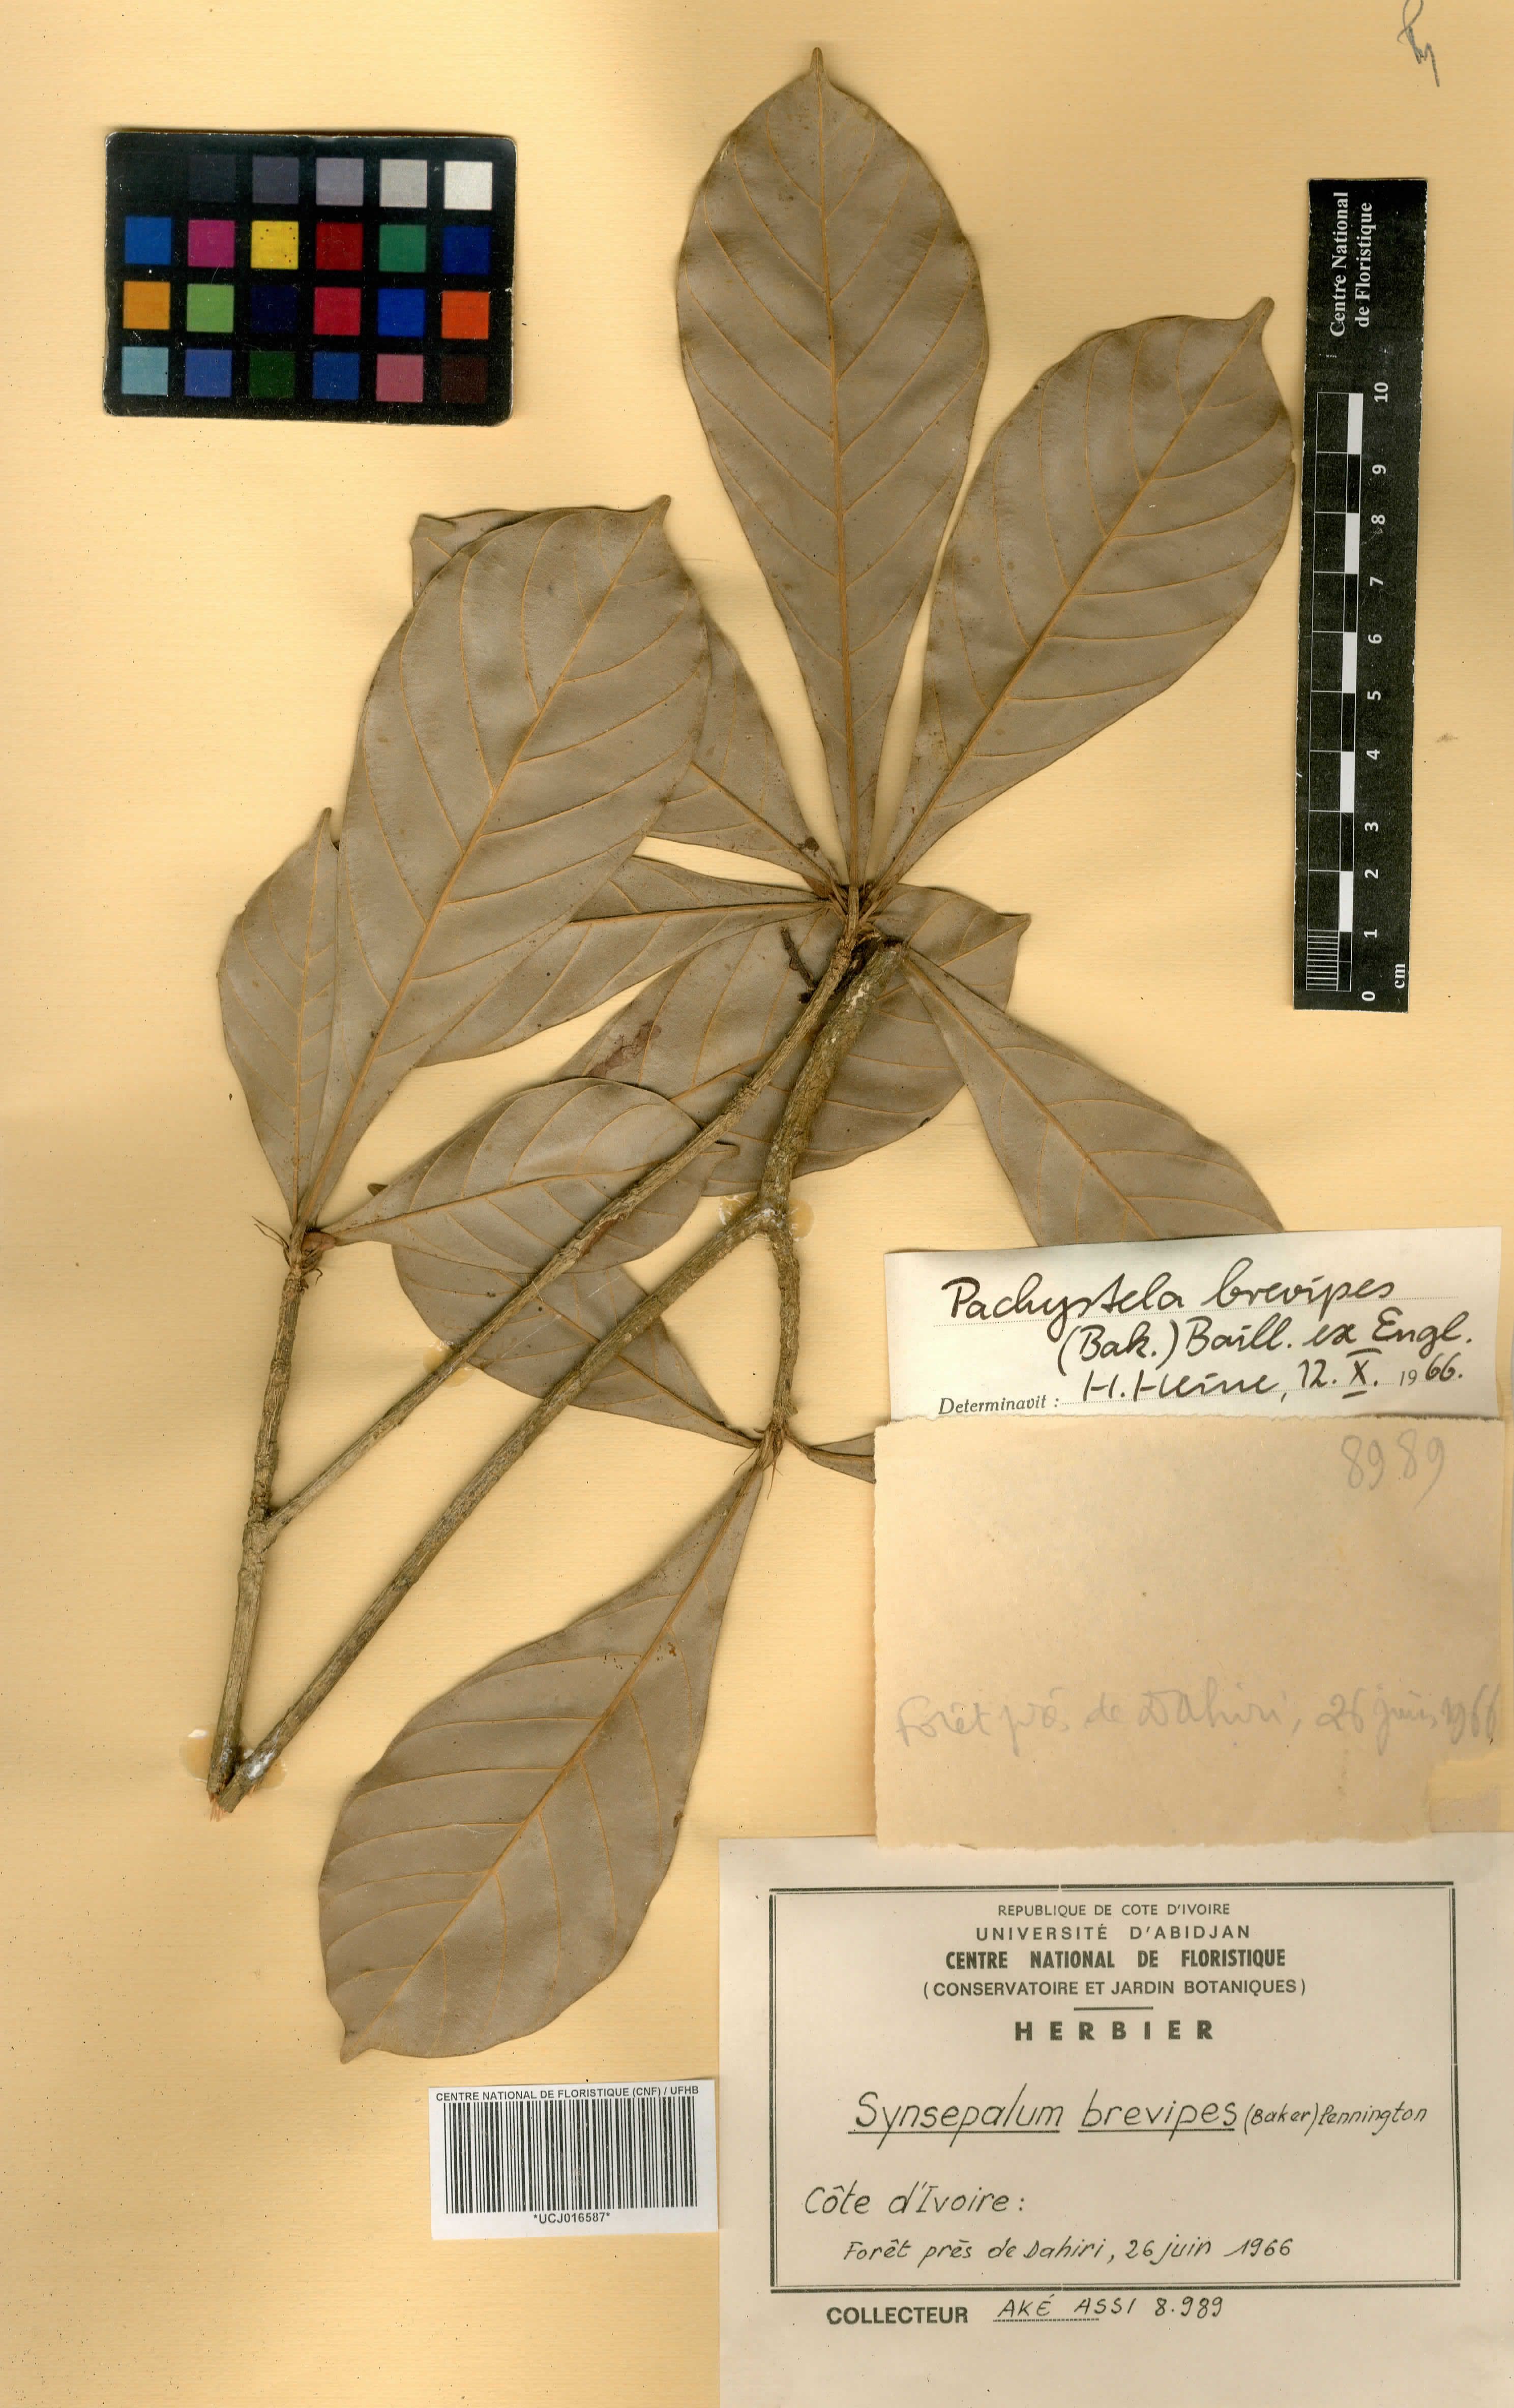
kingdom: Plantae
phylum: Tracheophyta
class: Magnoliopsida
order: Ericales
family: Sapotaceae
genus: Synsepalum
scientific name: Synsepalum brevipes
